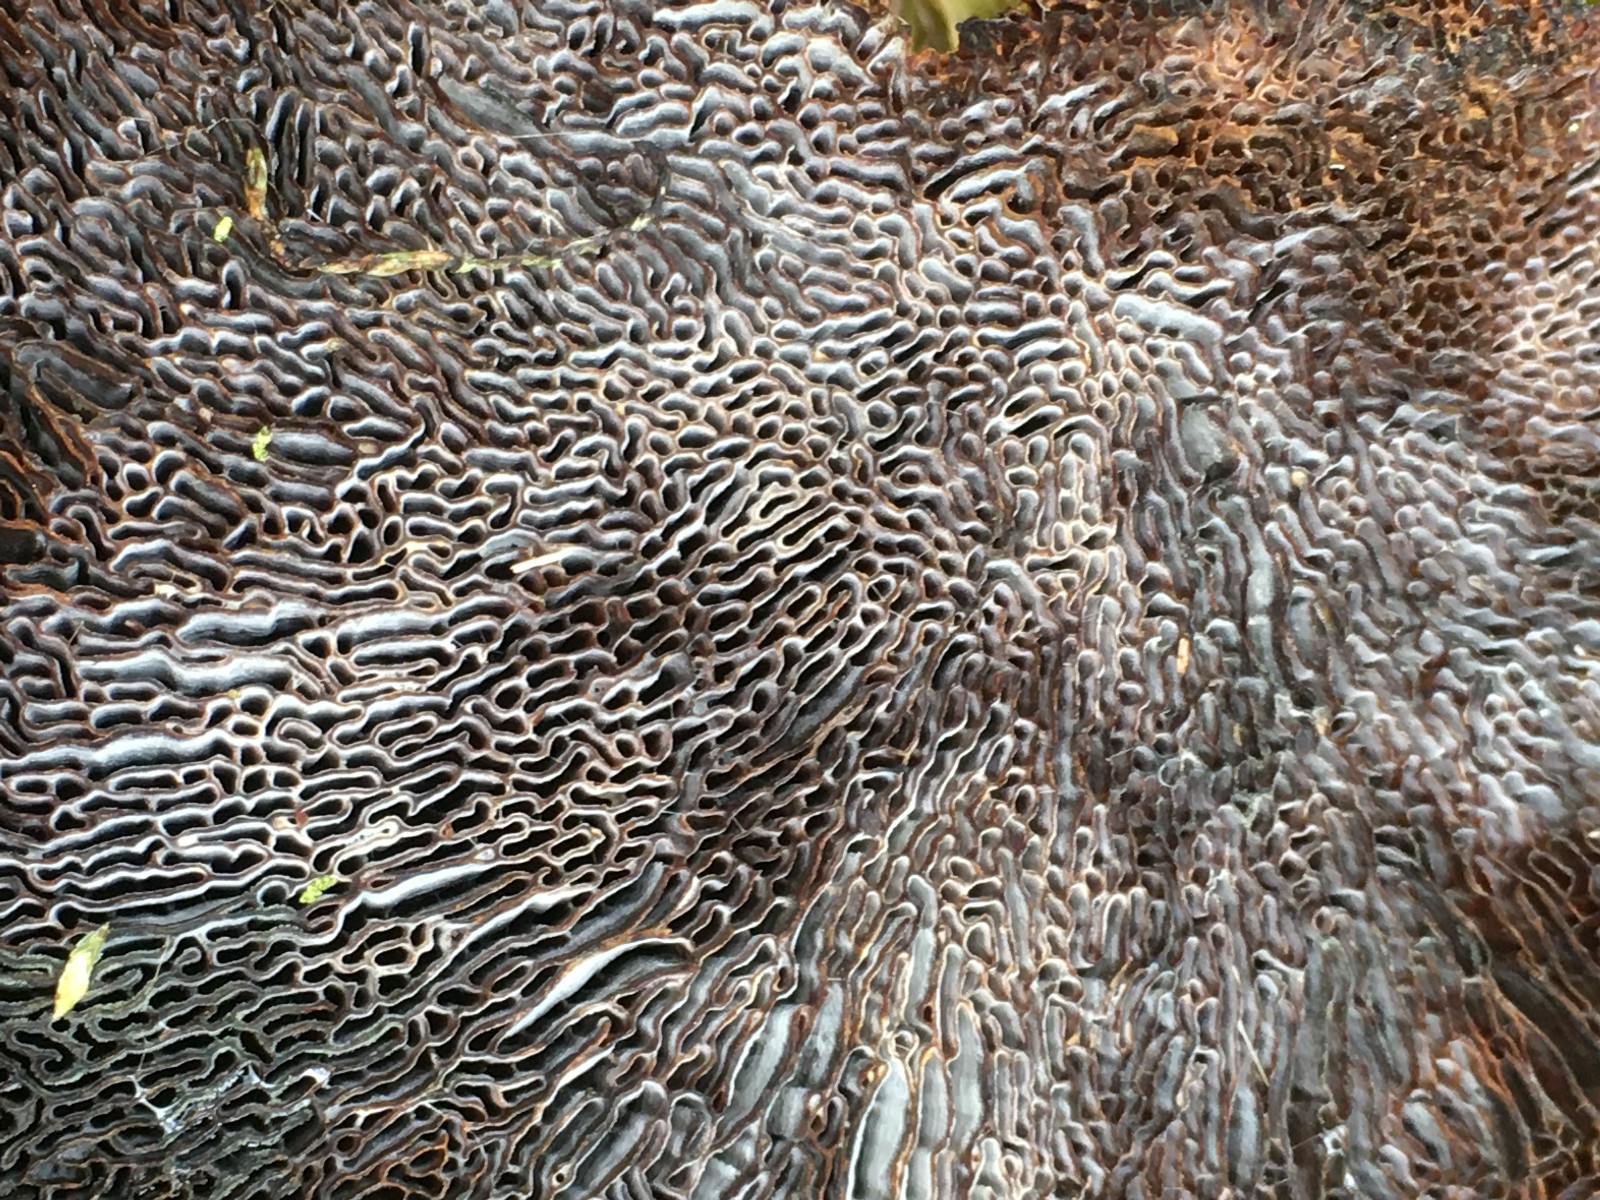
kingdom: Fungi
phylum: Basidiomycota
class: Agaricomycetes
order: Polyporales
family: Polyporaceae
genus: Daedaleopsis
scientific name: Daedaleopsis confragosa
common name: rødmende læderporesvamp
